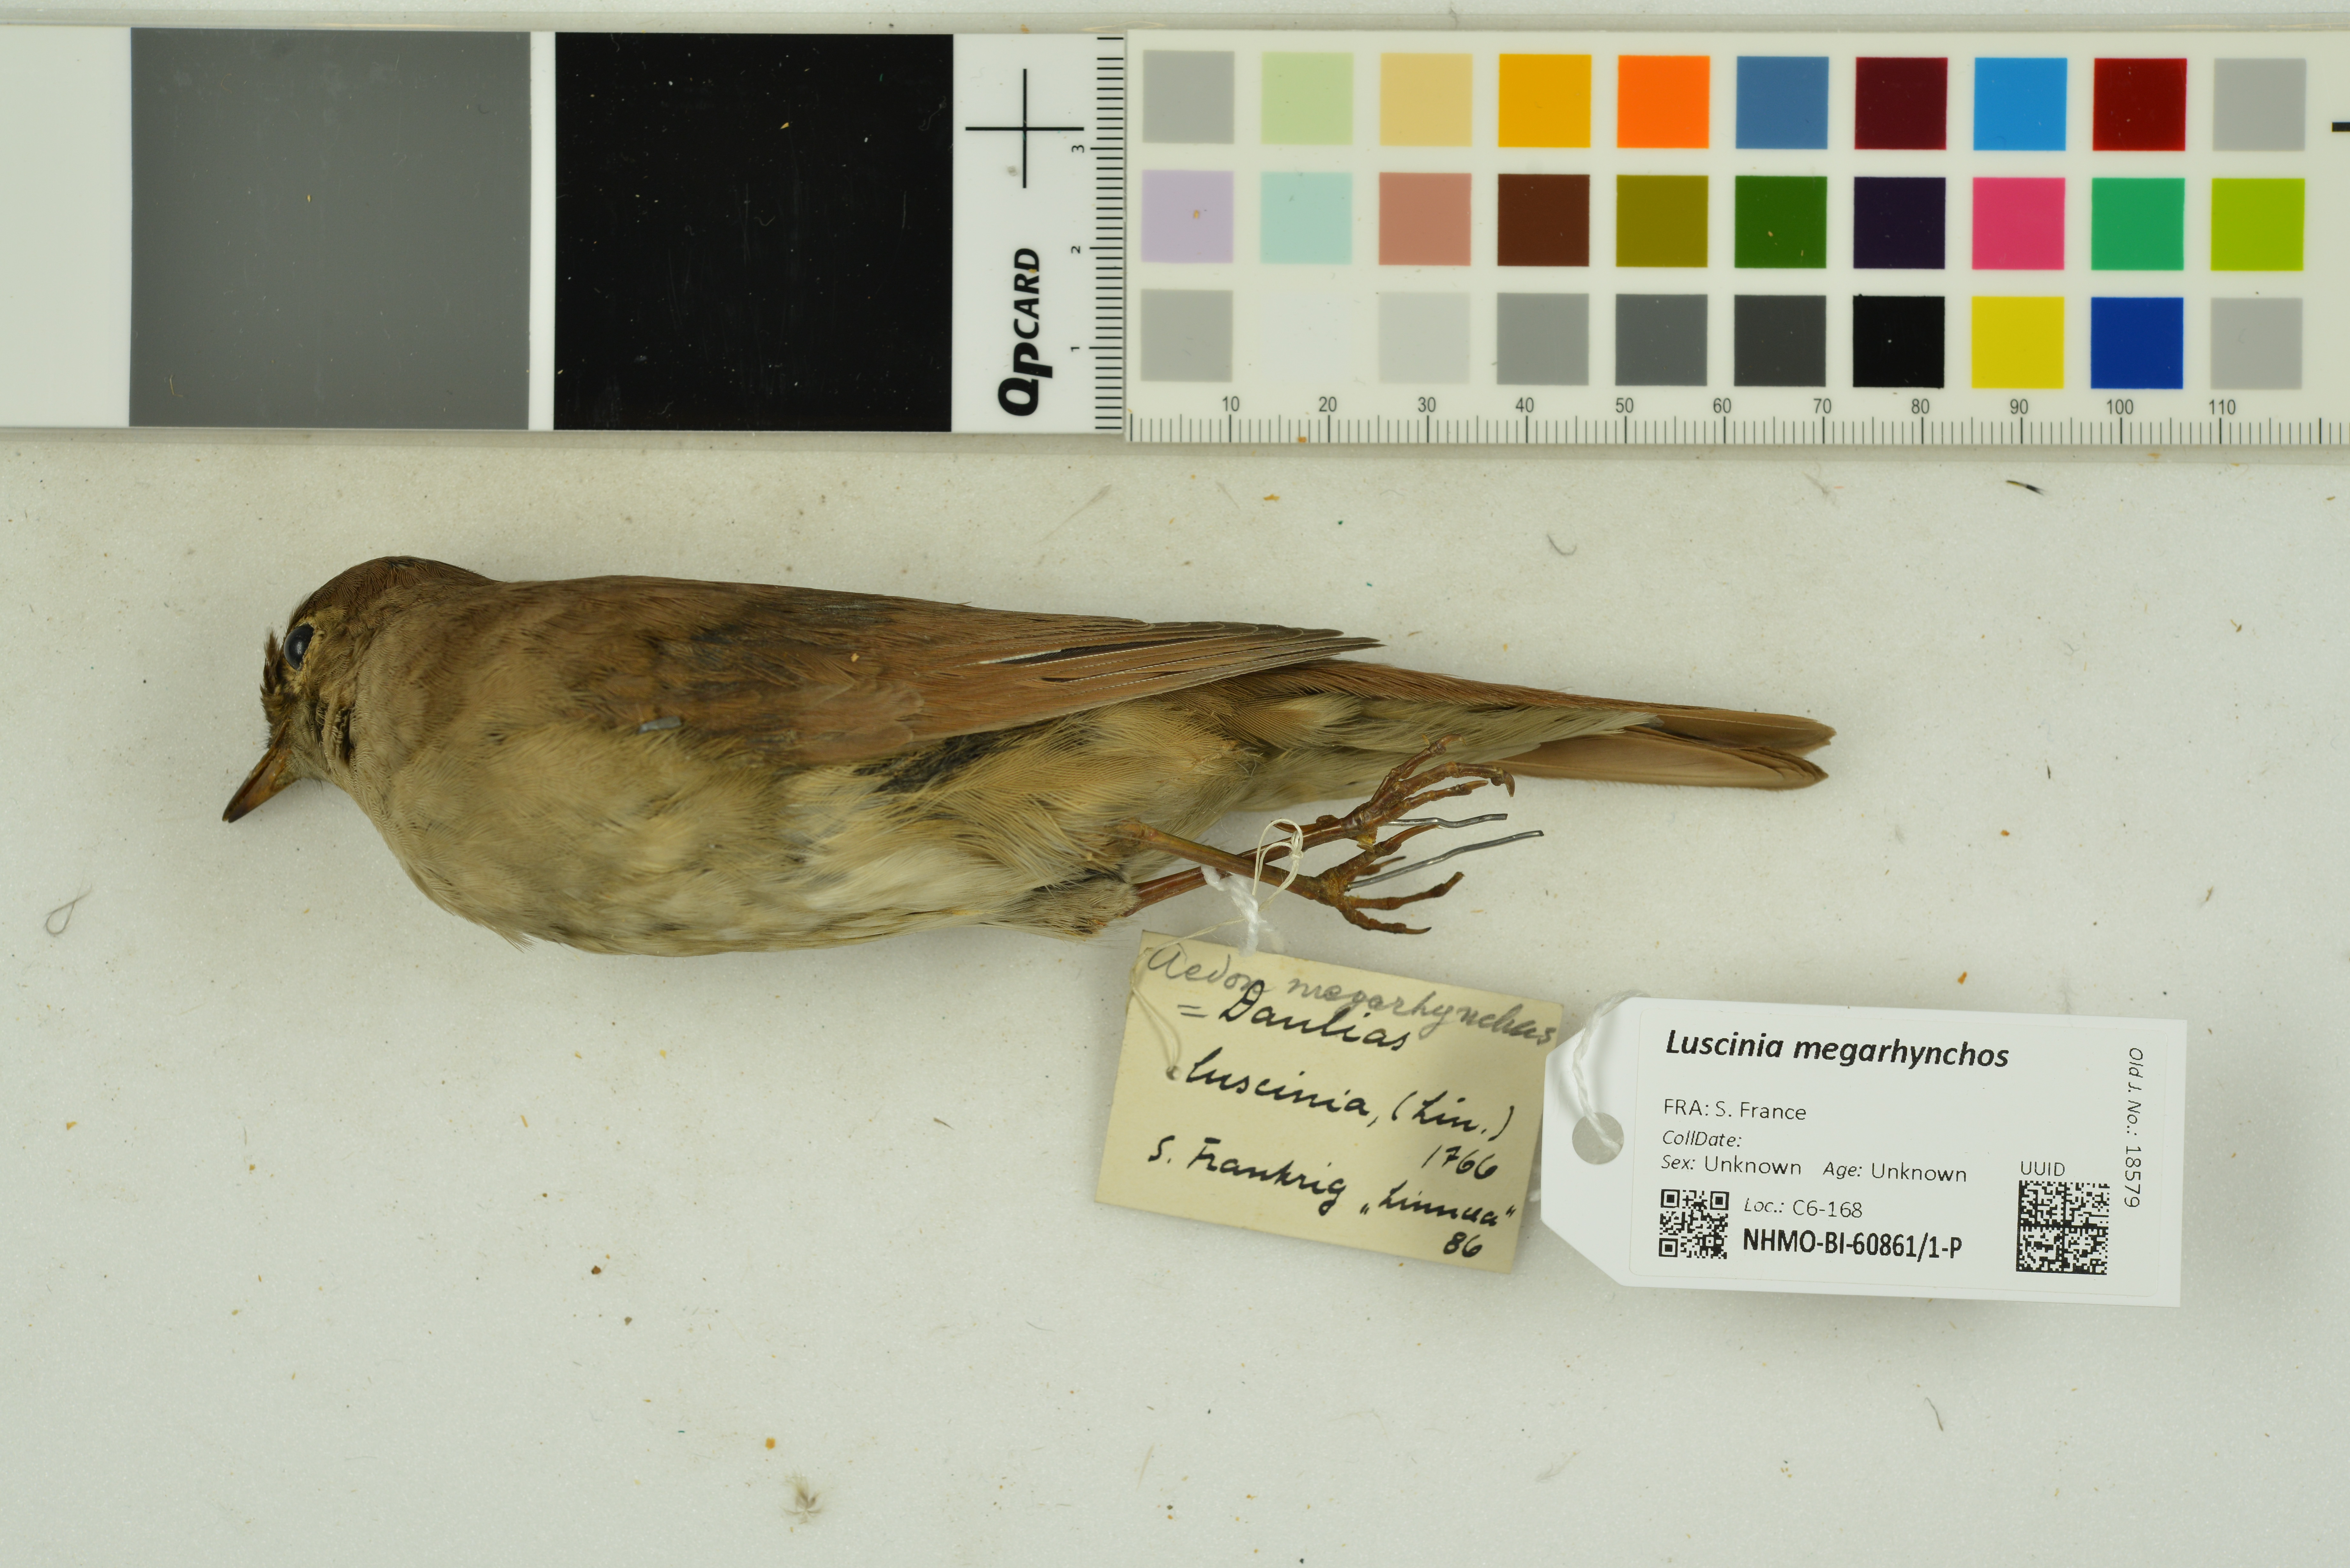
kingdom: Animalia
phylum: Chordata
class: Aves
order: Passeriformes
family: Muscicapidae
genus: Luscinia
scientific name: Luscinia megarhynchos
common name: Common nightingale
